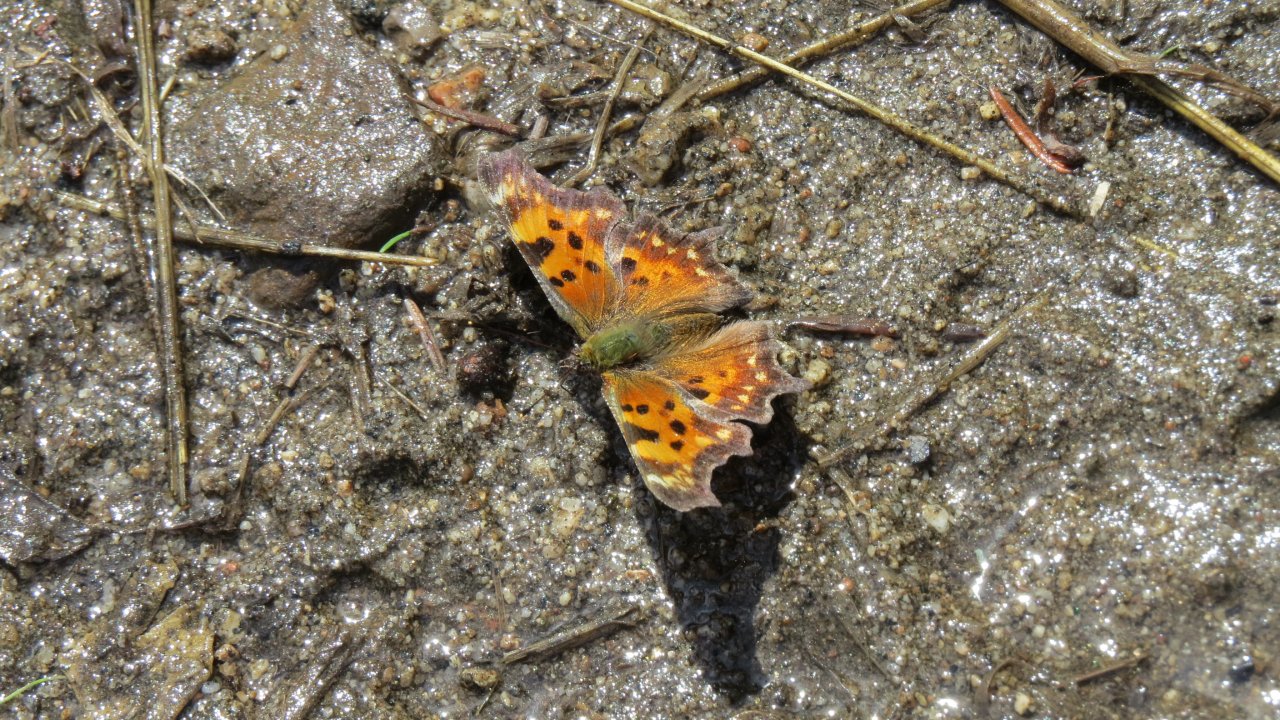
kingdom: Animalia
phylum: Arthropoda
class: Insecta
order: Lepidoptera
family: Nymphalidae
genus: Polygonia
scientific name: Polygonia satyrus
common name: Satyr Comma
